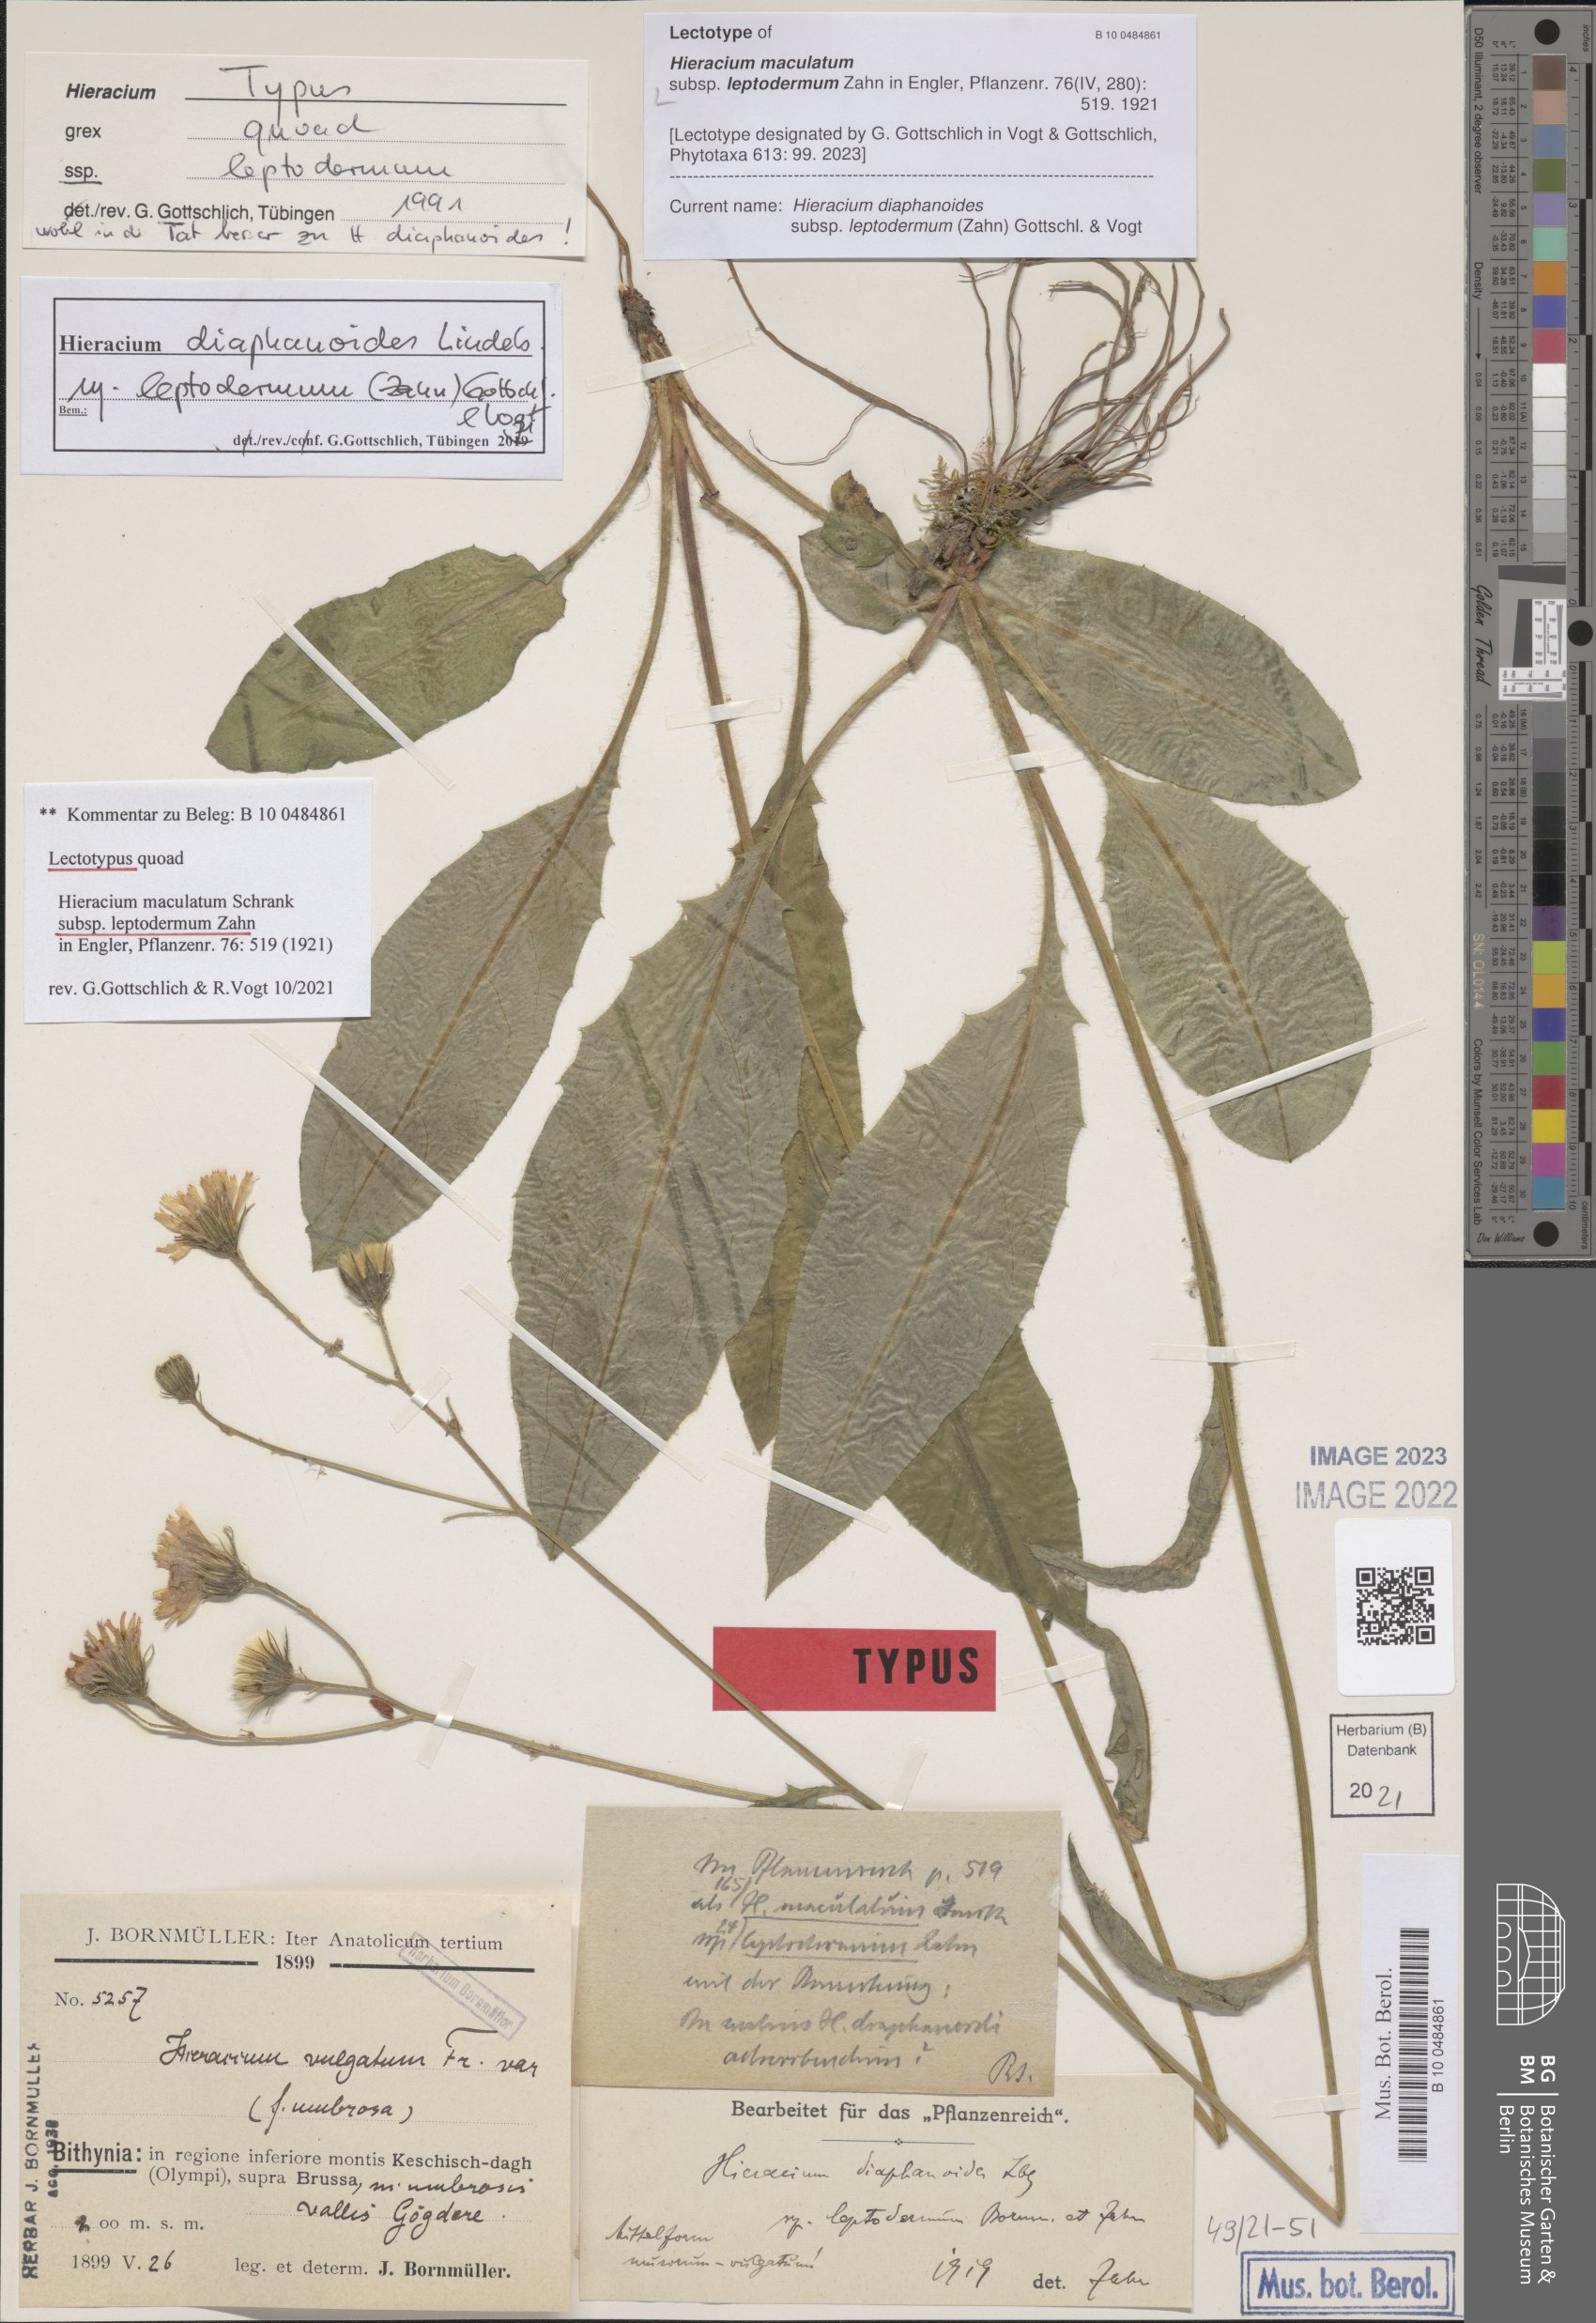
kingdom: Plantae
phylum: Tracheophyta
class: Magnoliopsida
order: Asterales
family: Asteraceae
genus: Hieracium
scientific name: Hieracium maculatum
